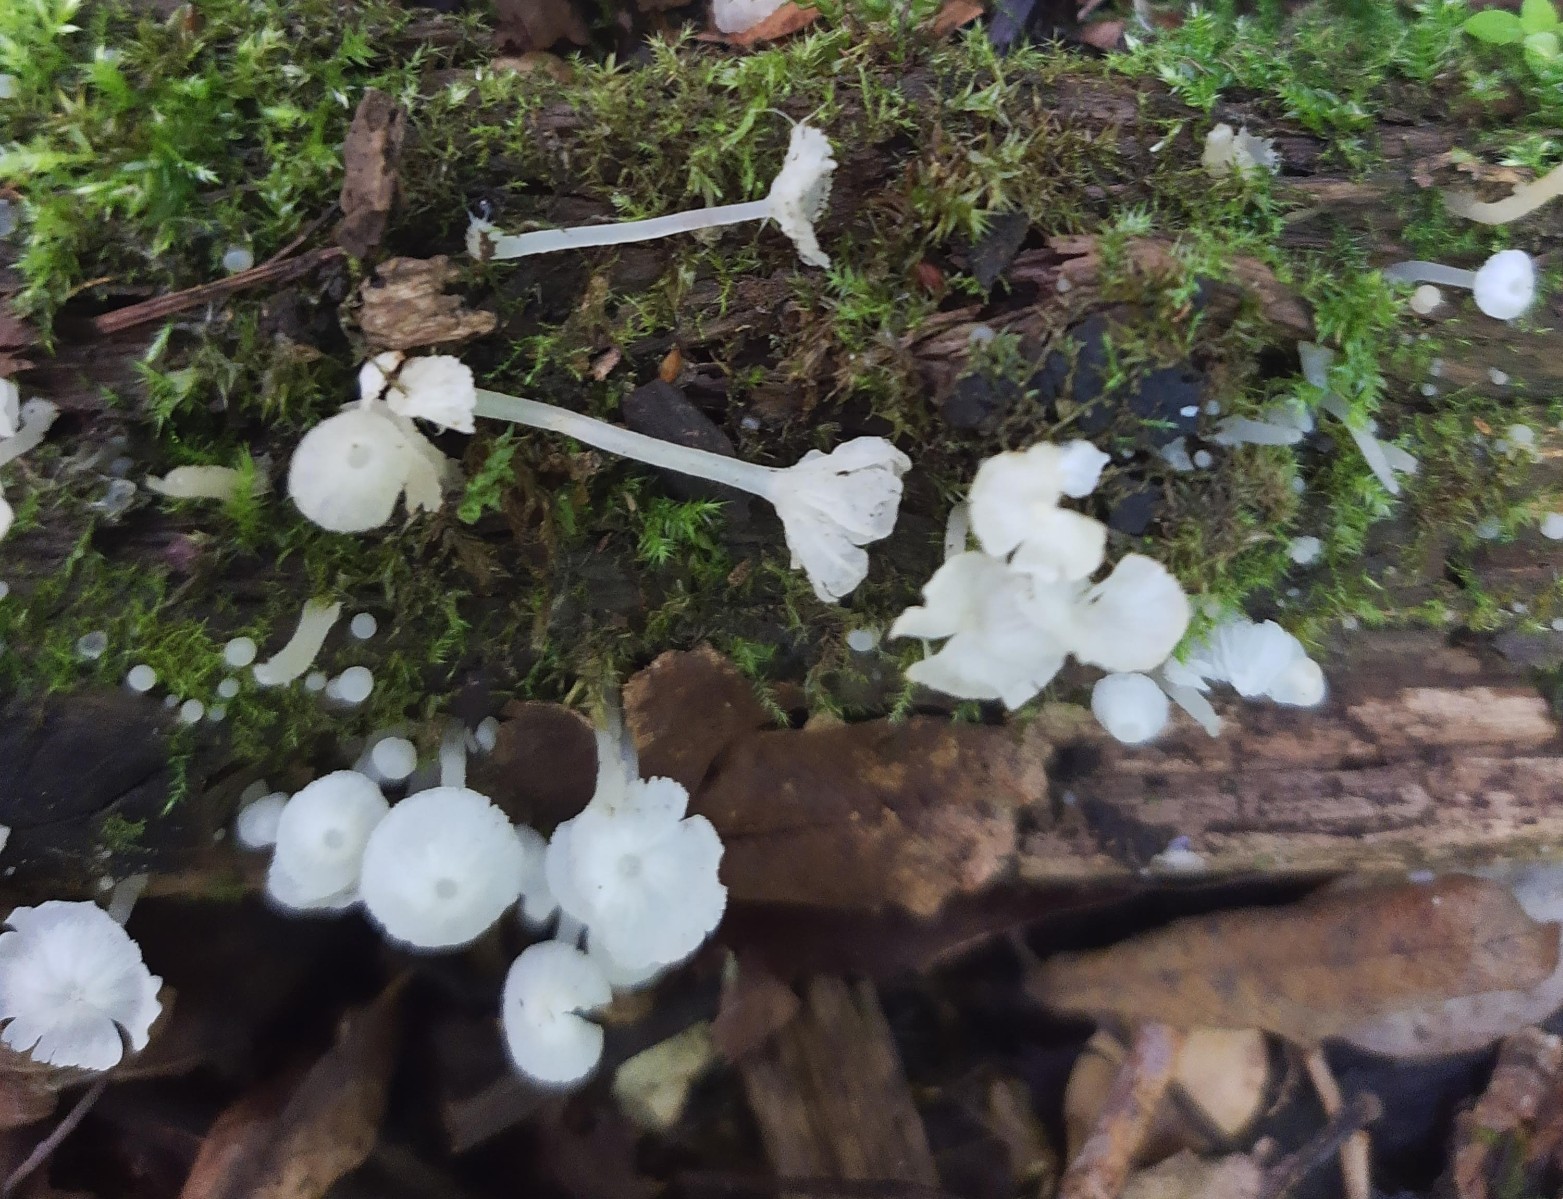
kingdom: Fungi
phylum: Basidiomycota
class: Agaricomycetes
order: Agaricales
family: Tricholomataceae
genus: Delicatula
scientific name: Delicatula integrella
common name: slørhuesvamp
